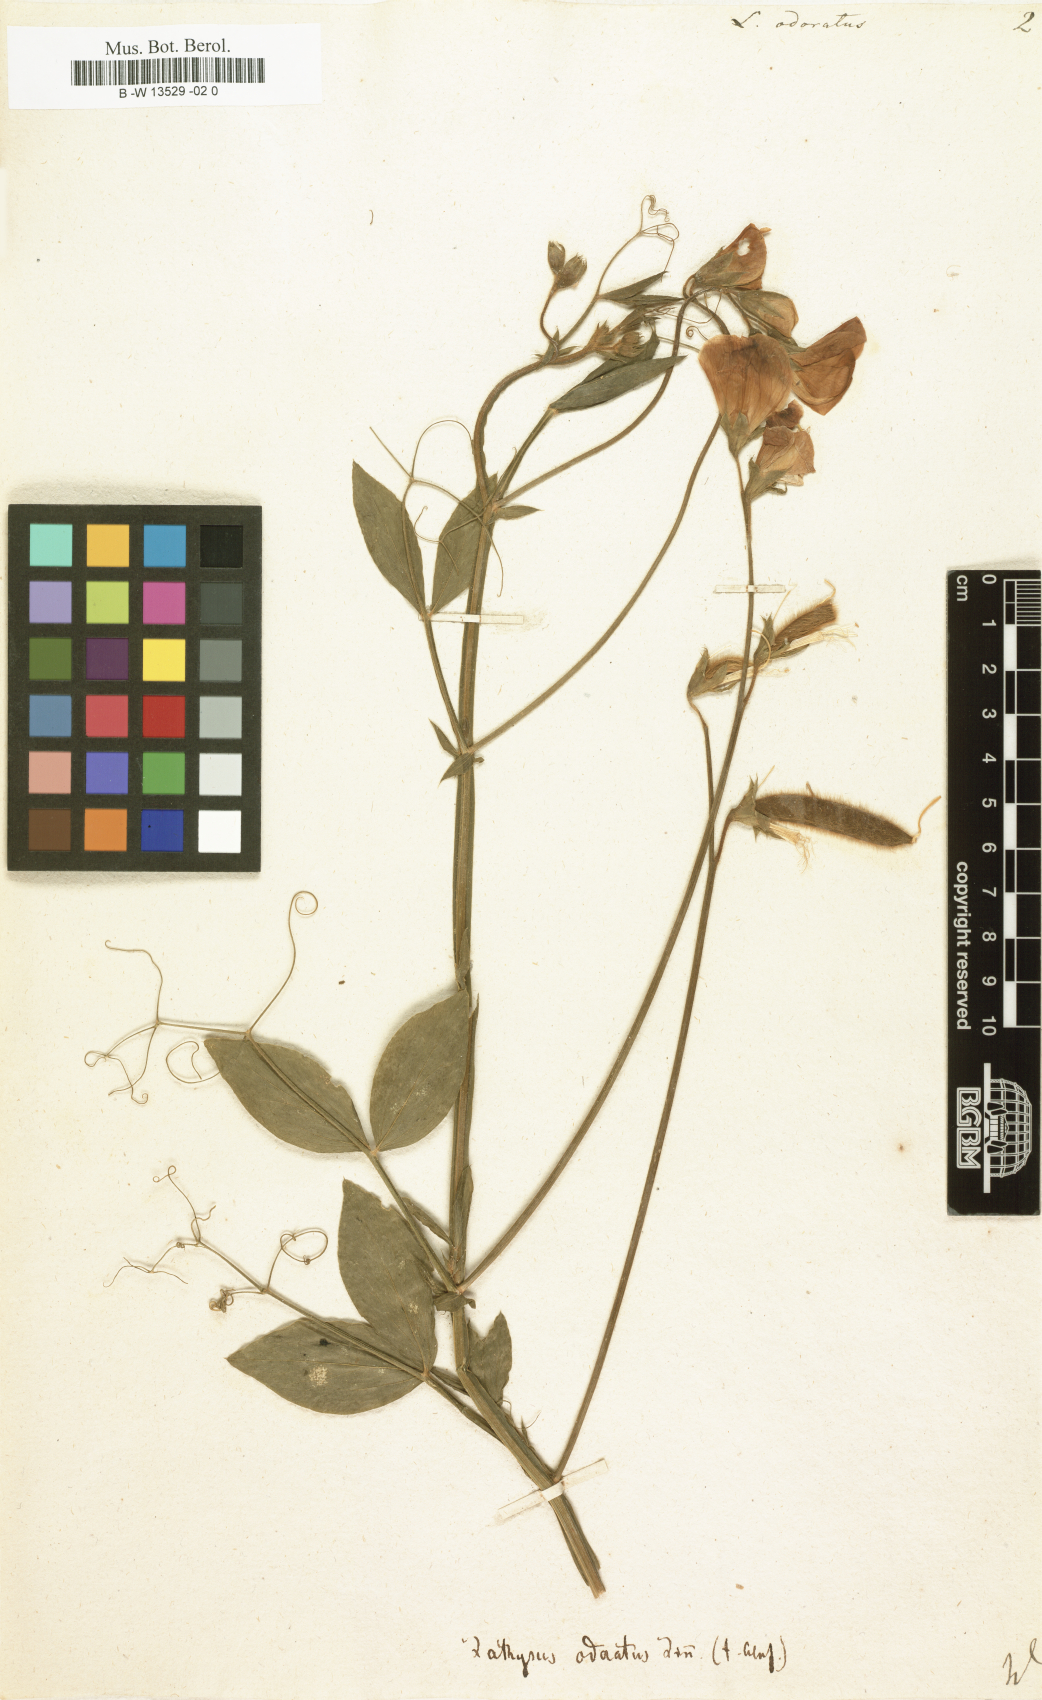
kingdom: Plantae
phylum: Tracheophyta
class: Magnoliopsida
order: Fabales
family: Fabaceae
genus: Lathyrus
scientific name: Lathyrus odoratus
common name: Sweet pea
